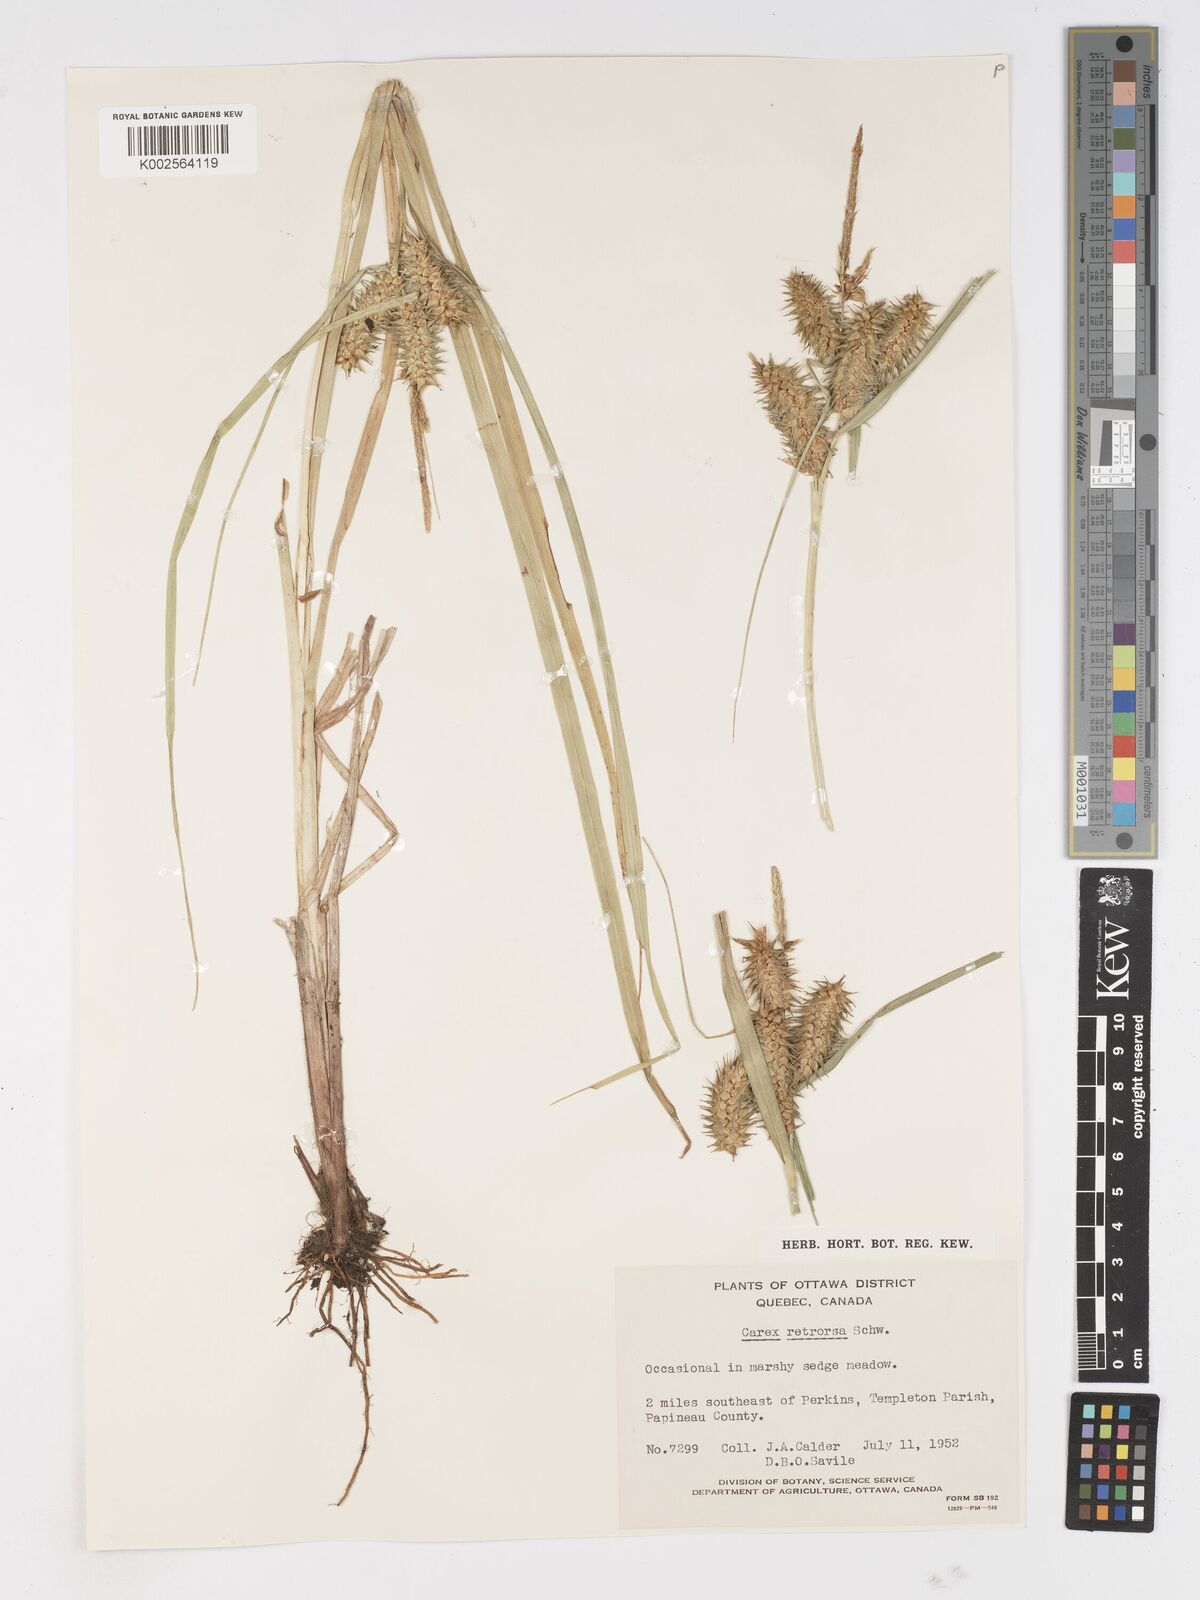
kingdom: Plantae
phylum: Tracheophyta
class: Liliopsida
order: Poales
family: Cyperaceae
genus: Carex
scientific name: Carex retrorsa
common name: Knot-sheath sedge
